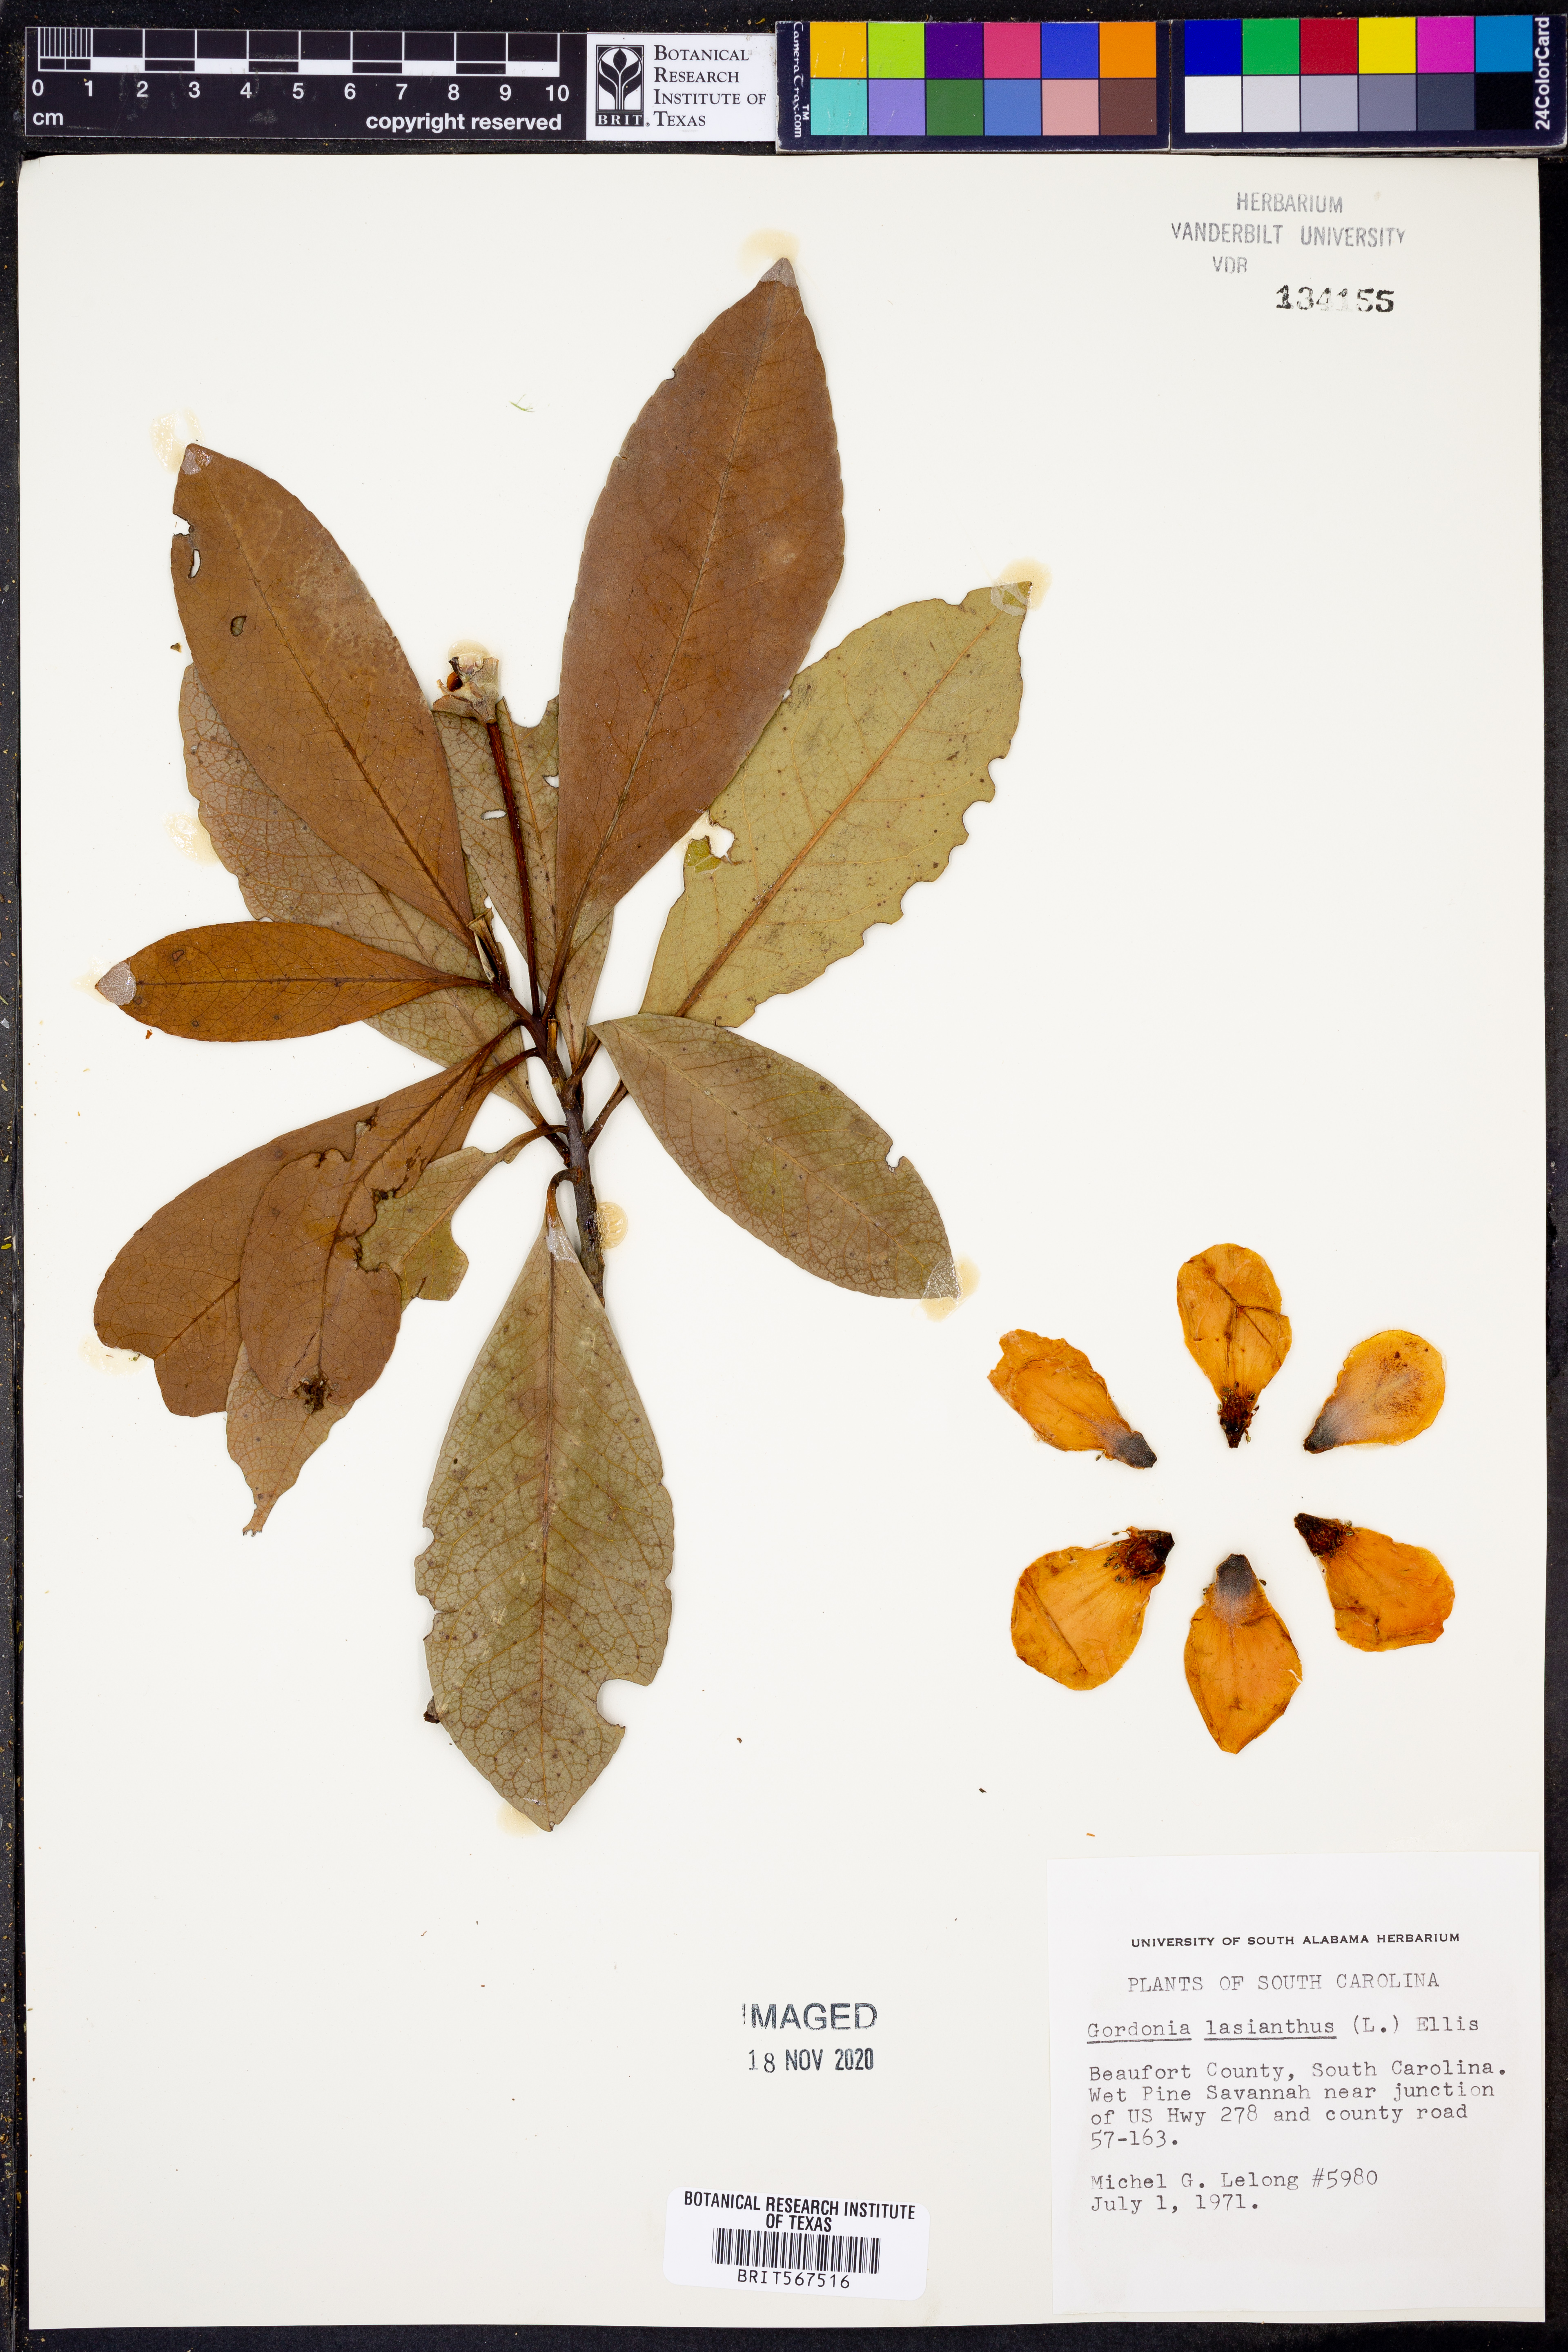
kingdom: Plantae
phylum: Tracheophyta
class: Magnoliopsida
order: Ericales
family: Theaceae
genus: Gordonia
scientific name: Gordonia lasianthus
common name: Loblolly bay
